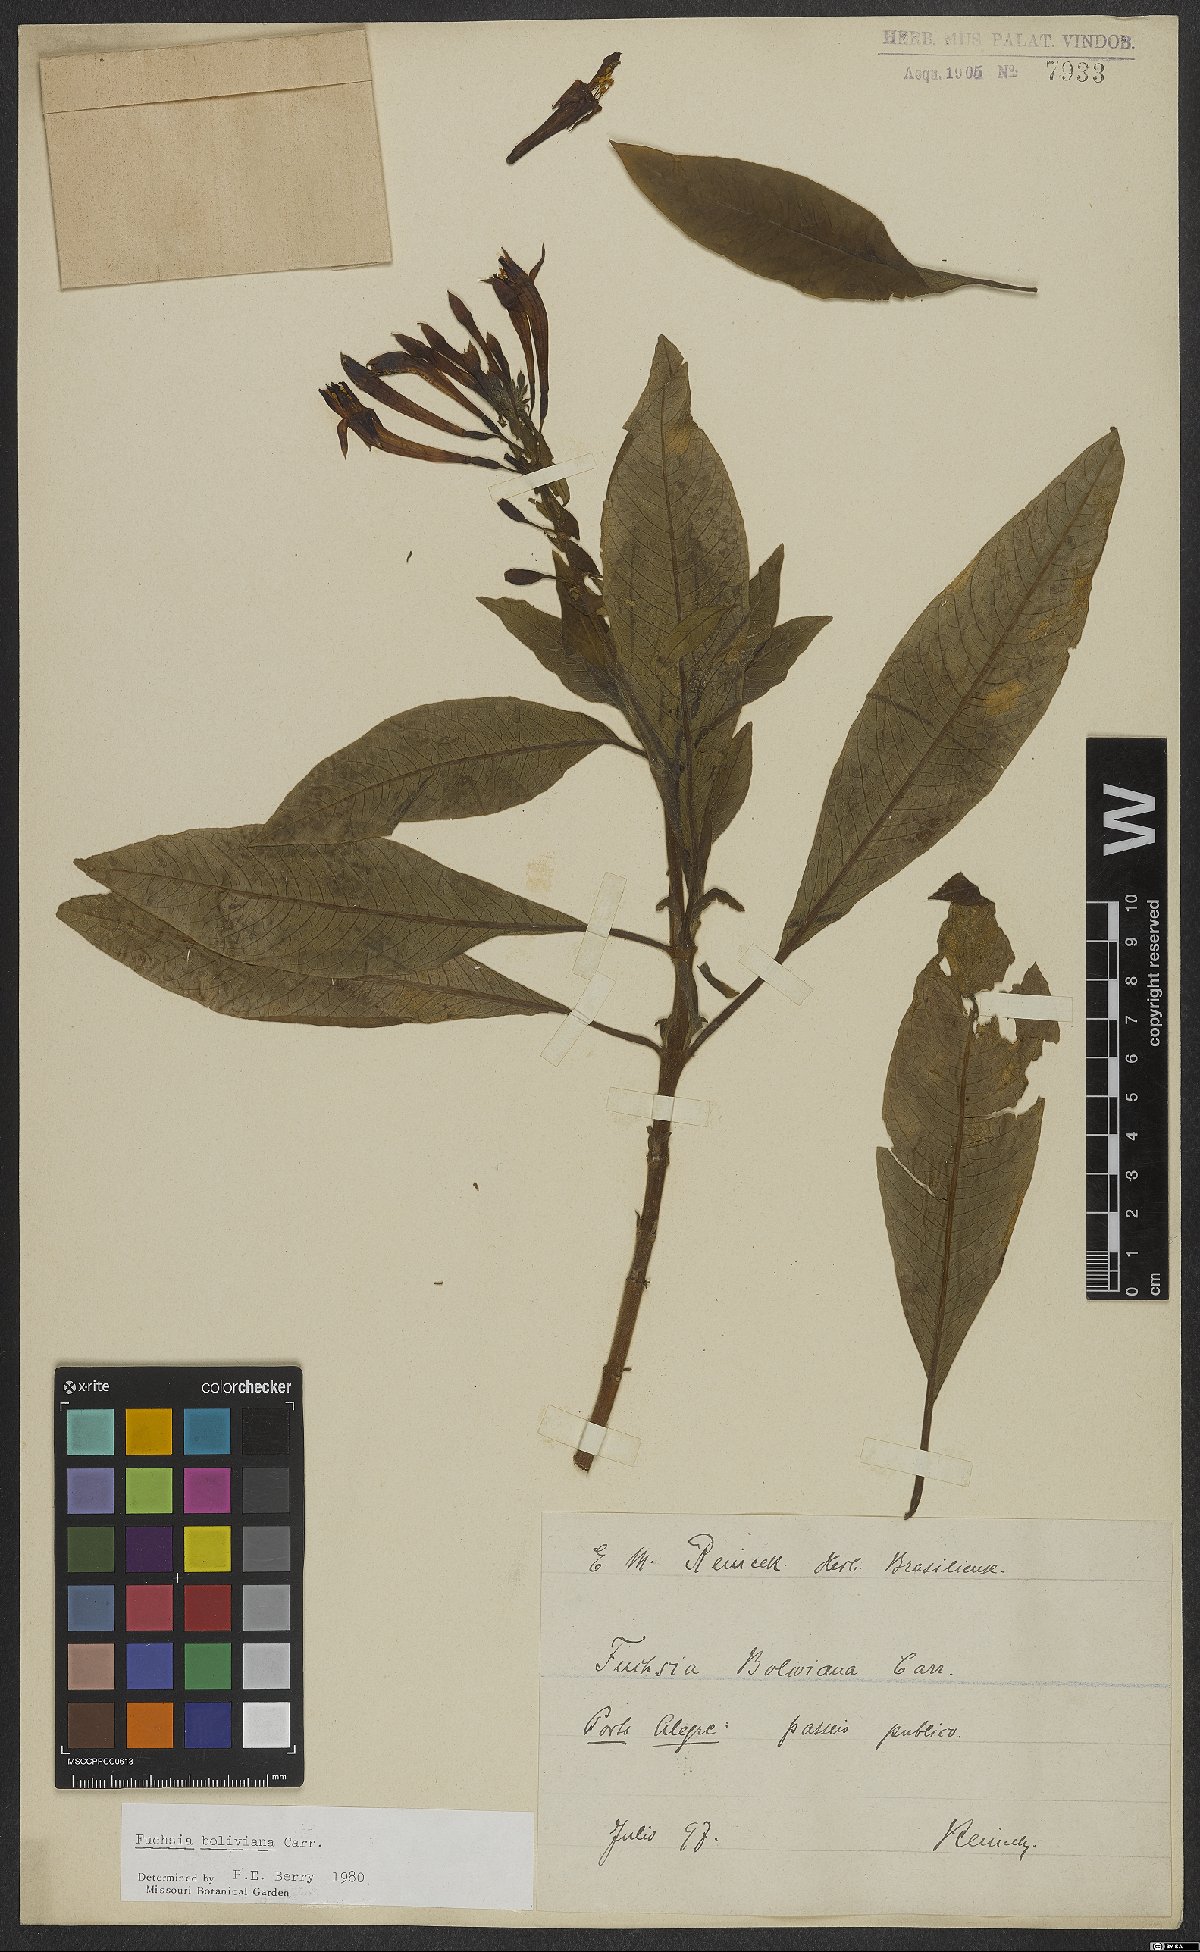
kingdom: Plantae
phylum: Tracheophyta
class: Magnoliopsida
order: Myrtales
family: Onagraceae
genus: Fuchsia
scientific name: Fuchsia boliviana
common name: Bolivian fuchsia
